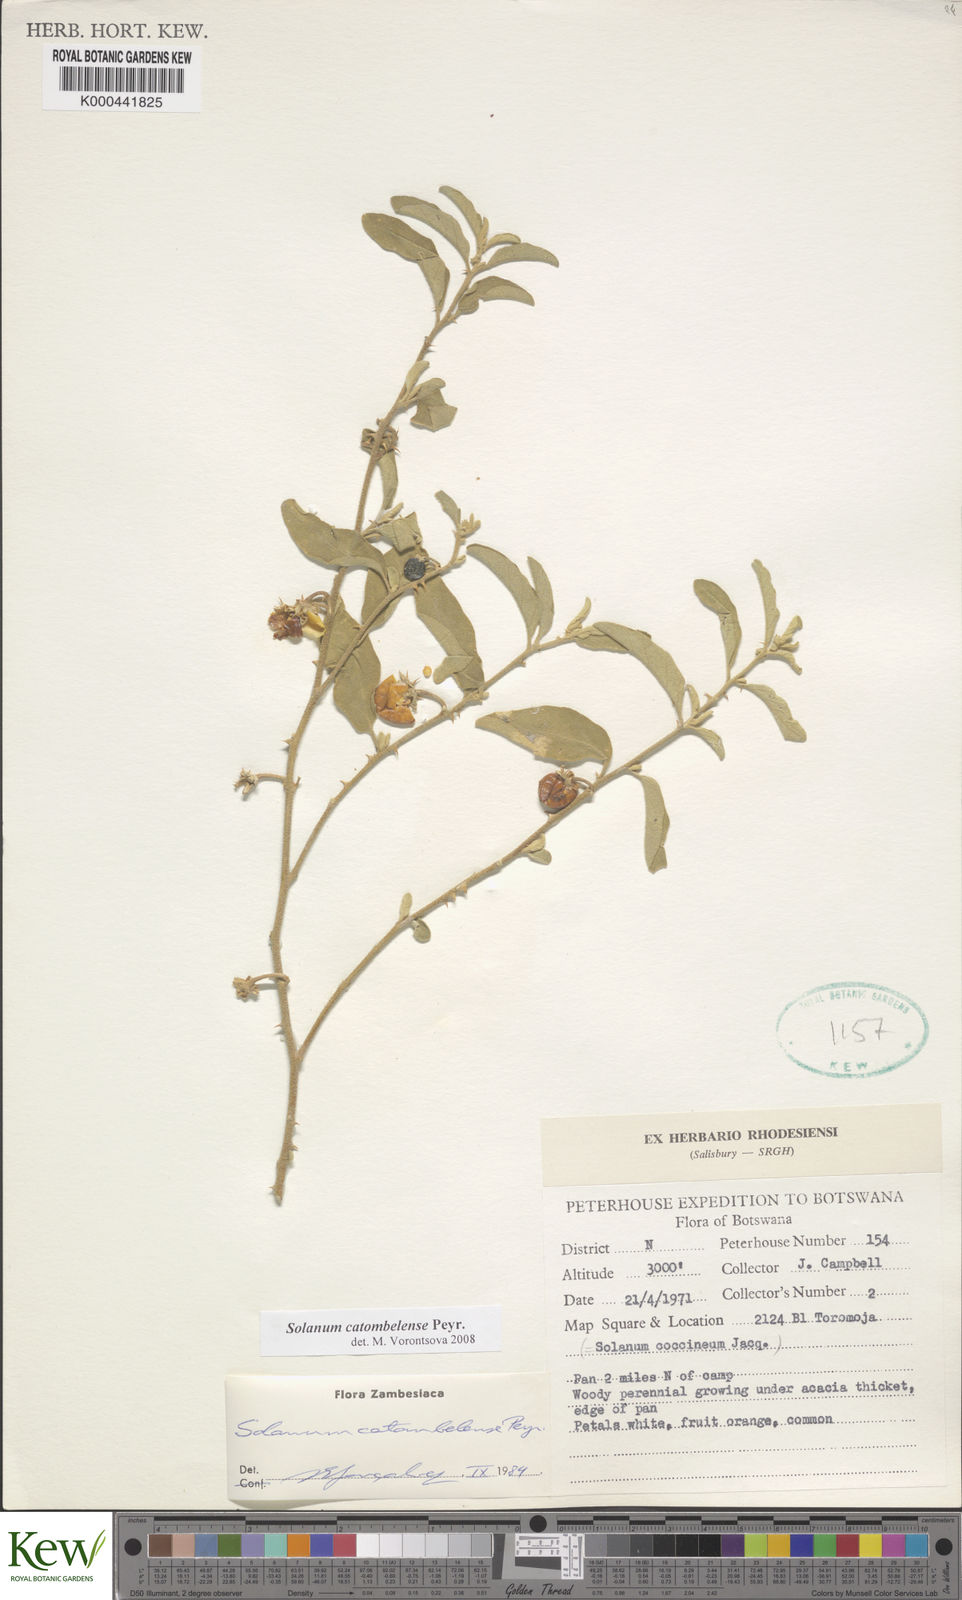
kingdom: Plantae
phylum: Tracheophyta
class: Magnoliopsida
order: Solanales
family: Solanaceae
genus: Solanum
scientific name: Solanum catombelense
